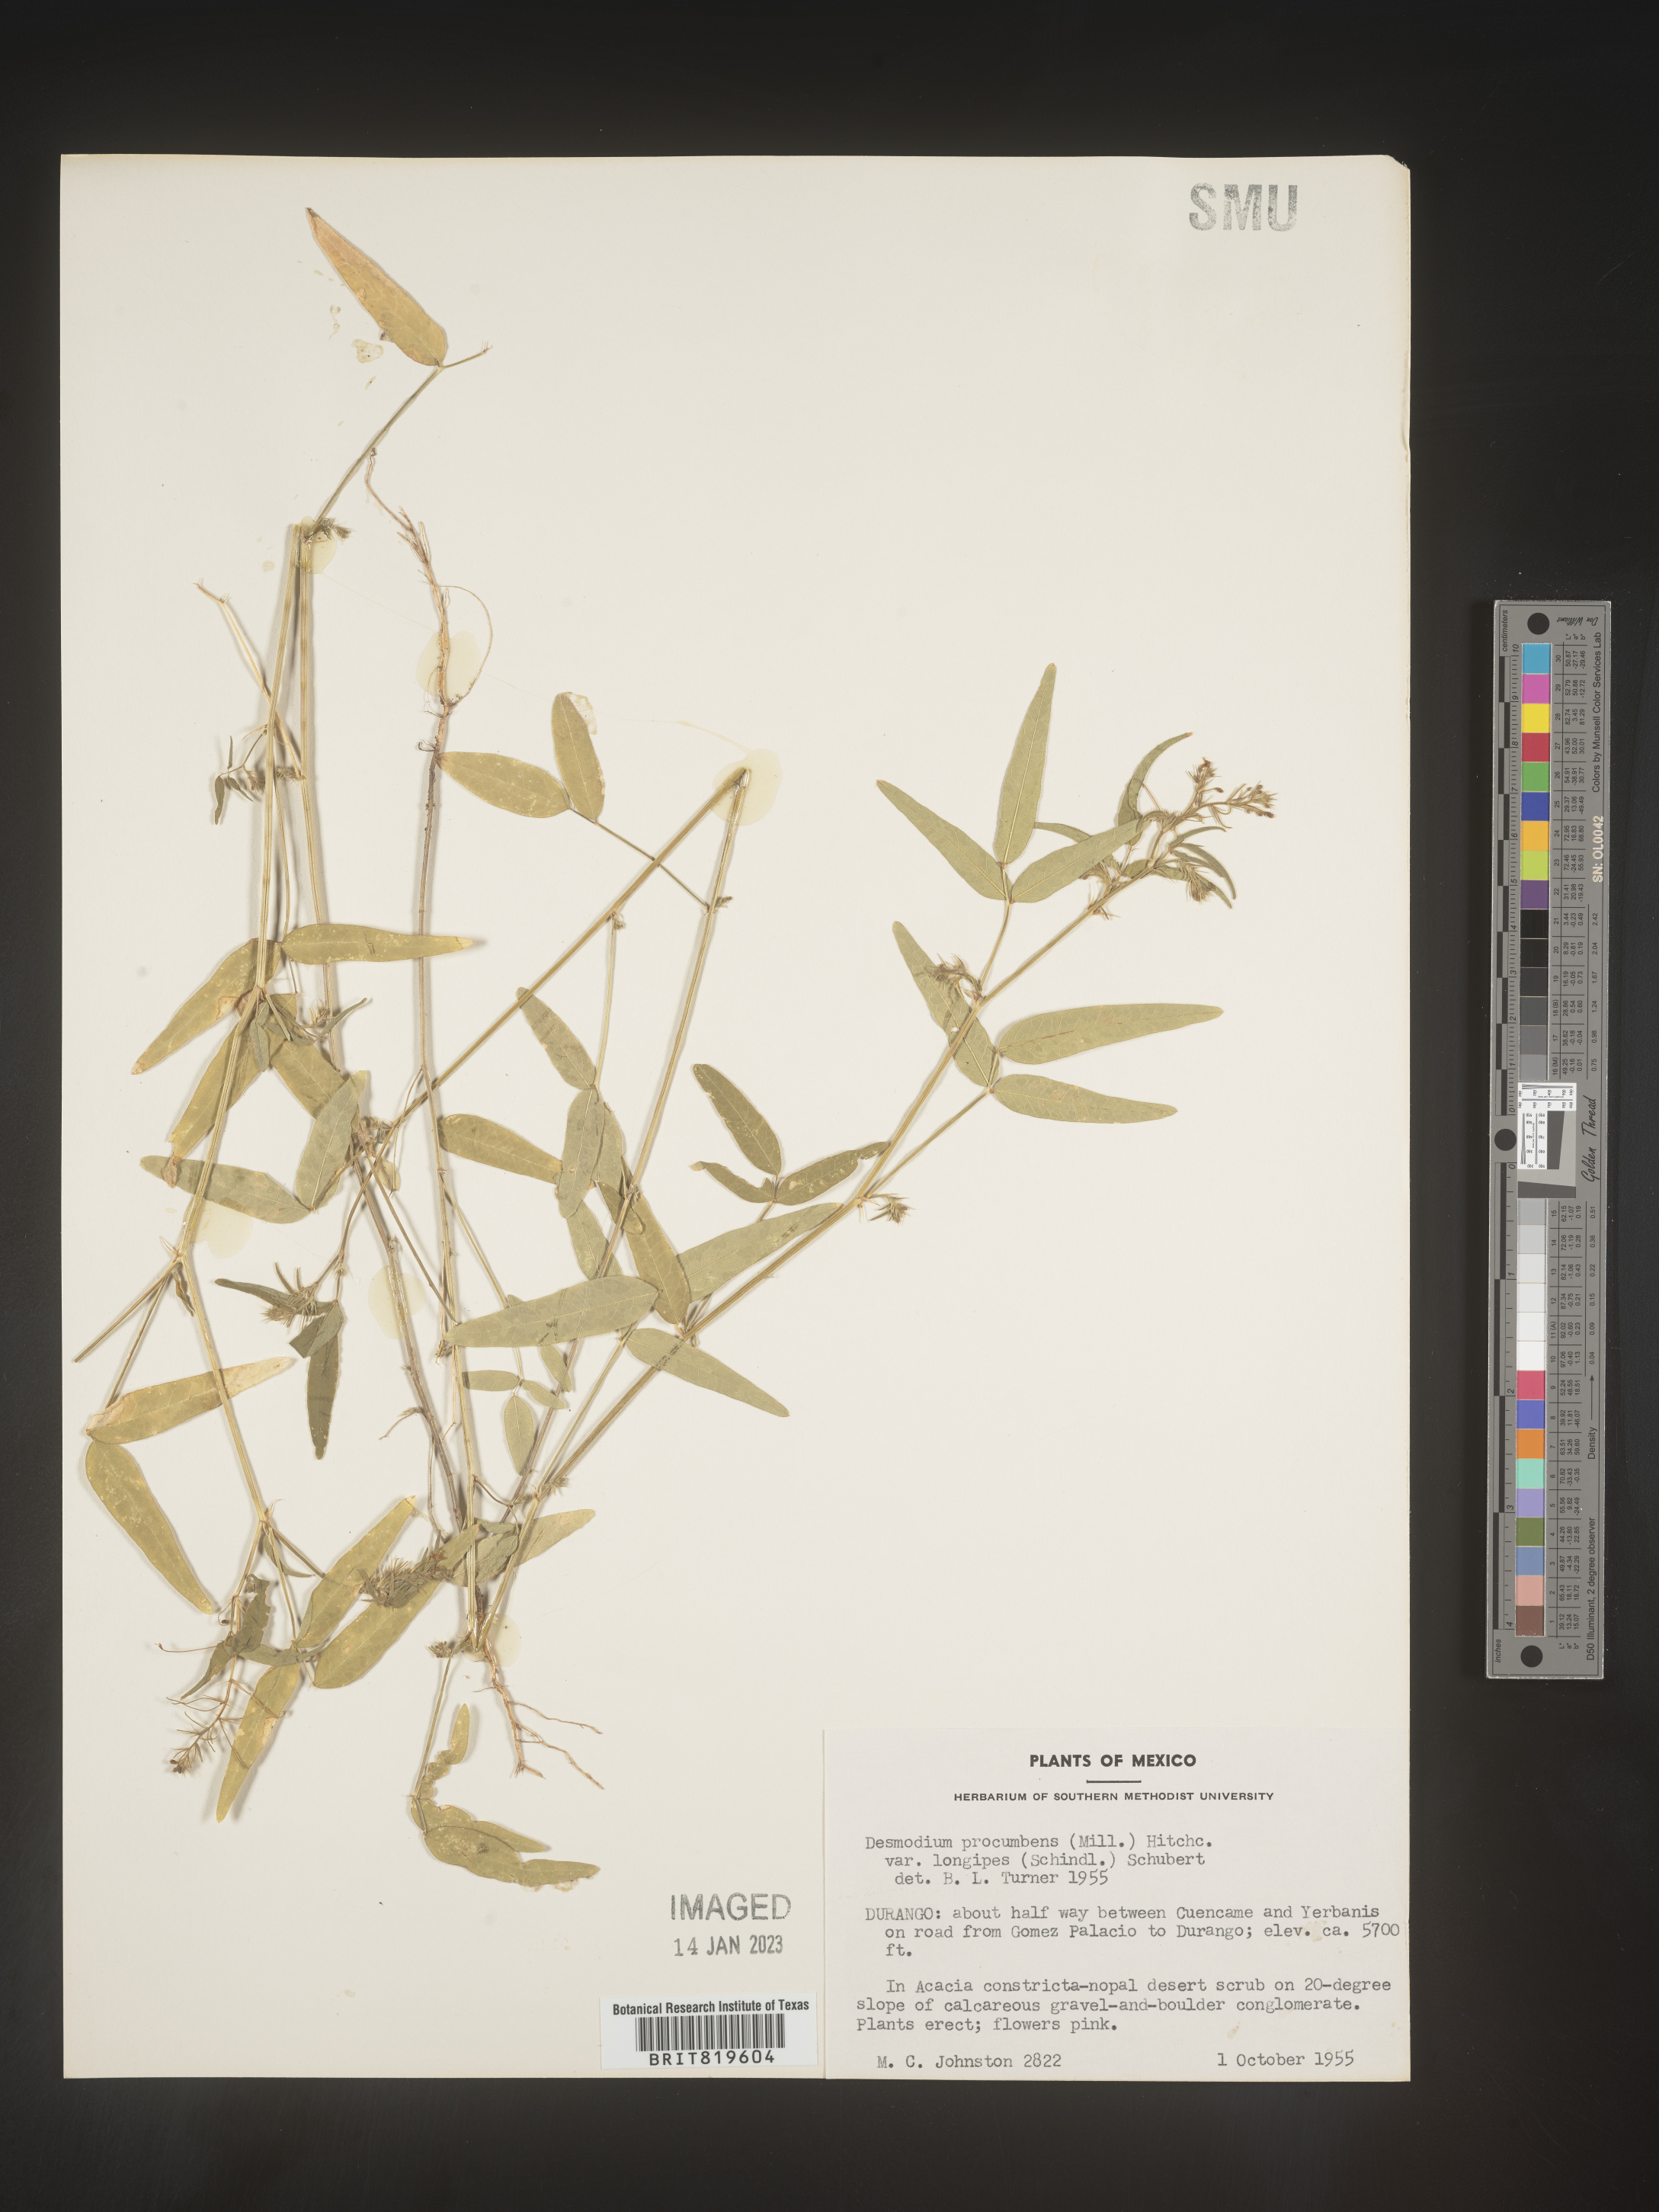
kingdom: Plantae
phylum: Tracheophyta
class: Magnoliopsida
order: Fabales
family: Fabaceae
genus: Desmodium
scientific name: Desmodium
